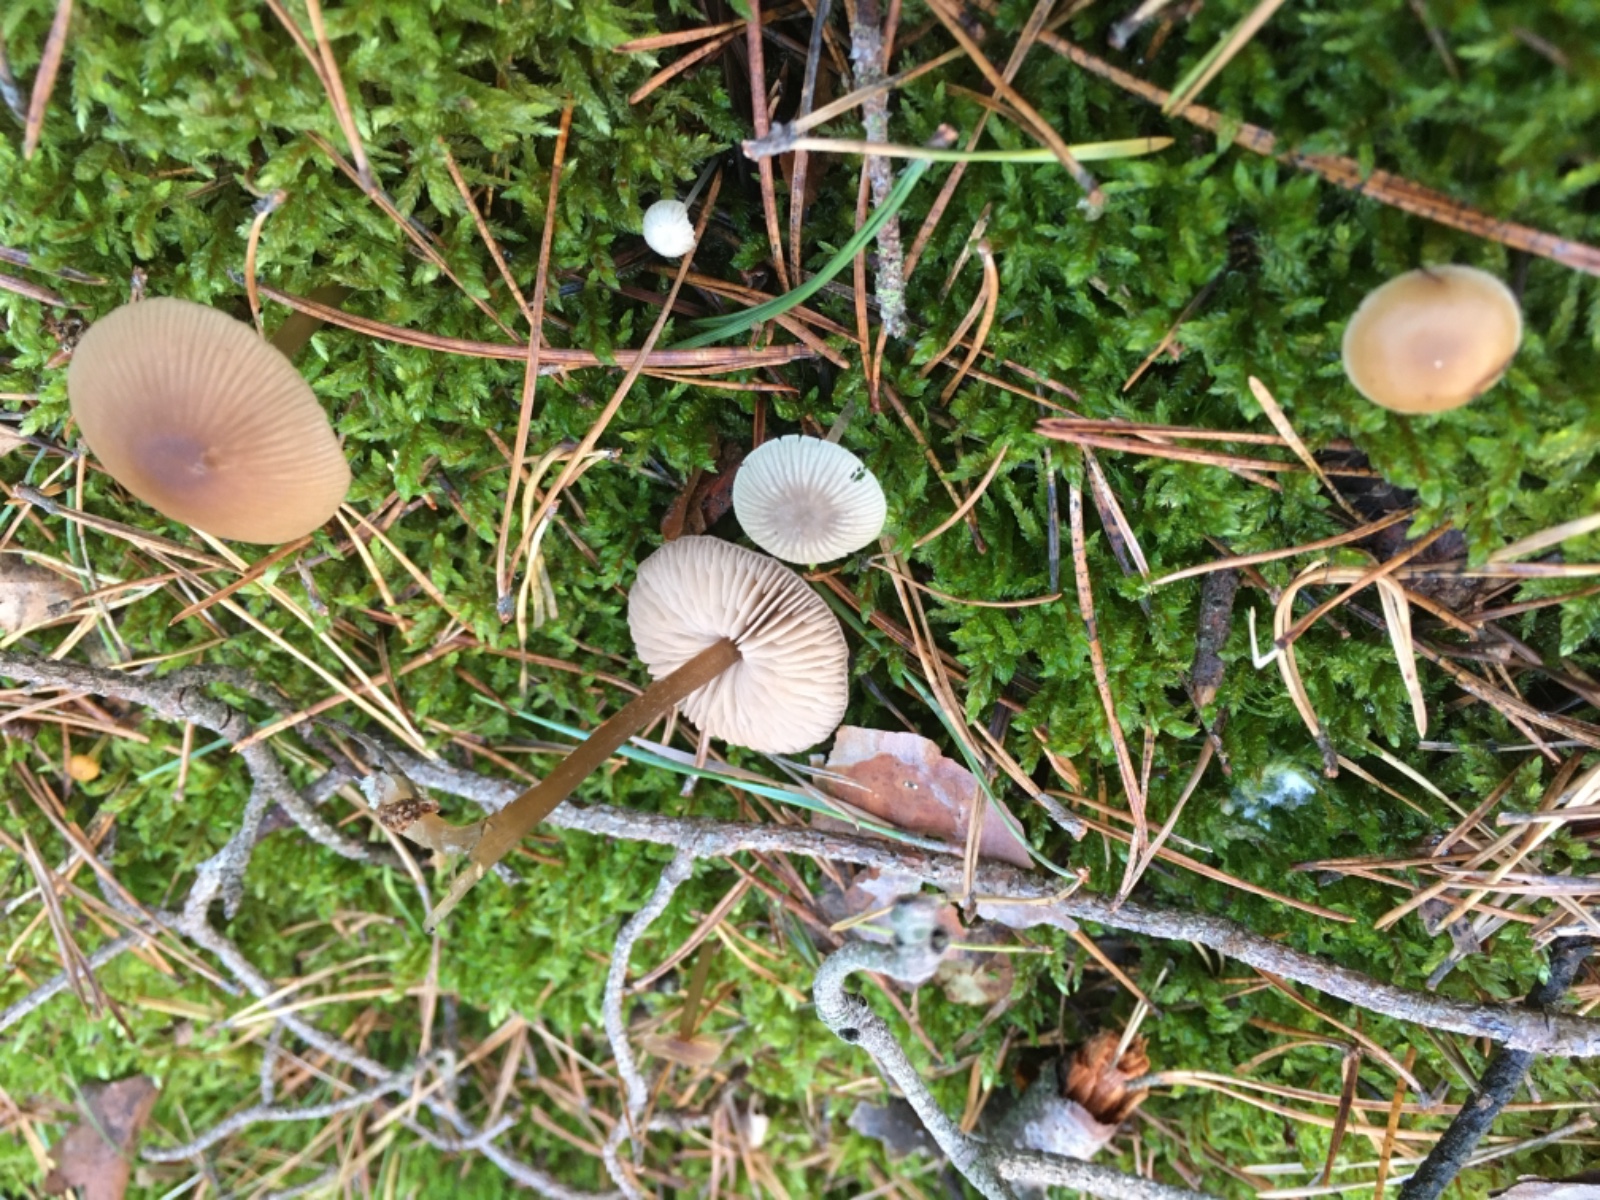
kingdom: Fungi
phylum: Basidiomycota
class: Agaricomycetes
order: Agaricales
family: Entolomataceae
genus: Entoloma
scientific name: Entoloma
